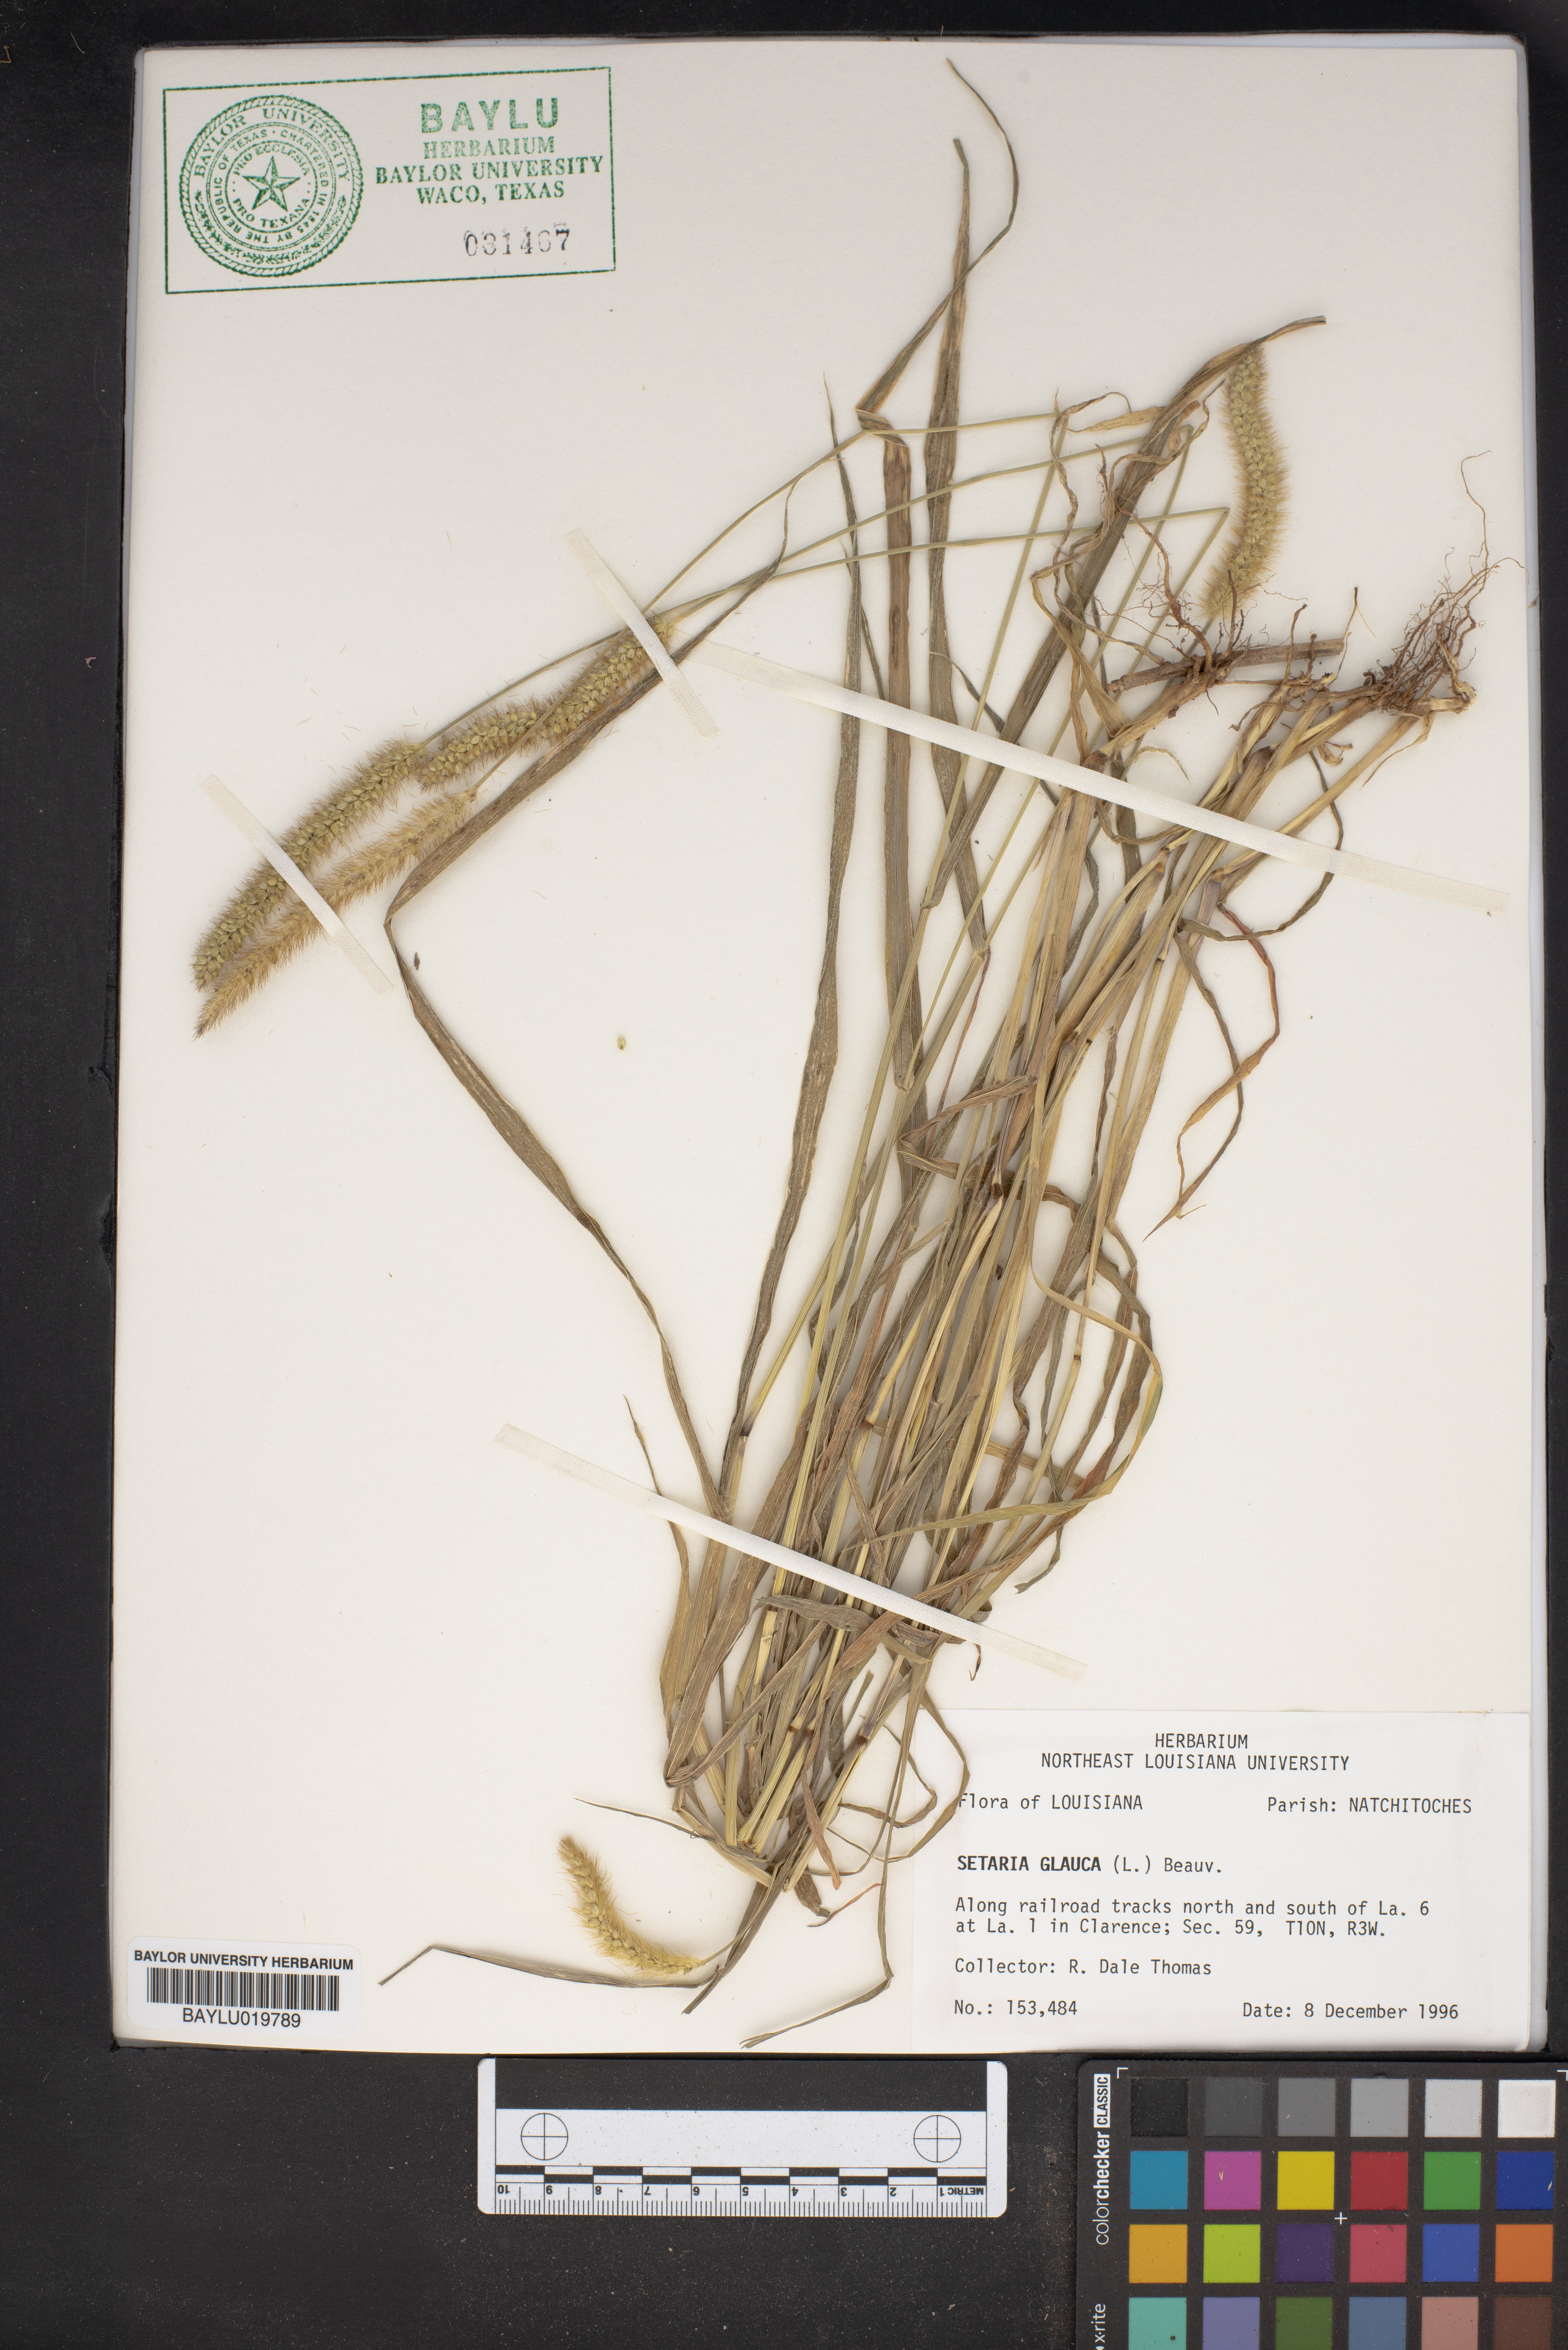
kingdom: Plantae
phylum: Tracheophyta
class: Liliopsida
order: Poales
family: Poaceae
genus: Cenchrus
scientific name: Cenchrus americanus
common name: Pearl millet
